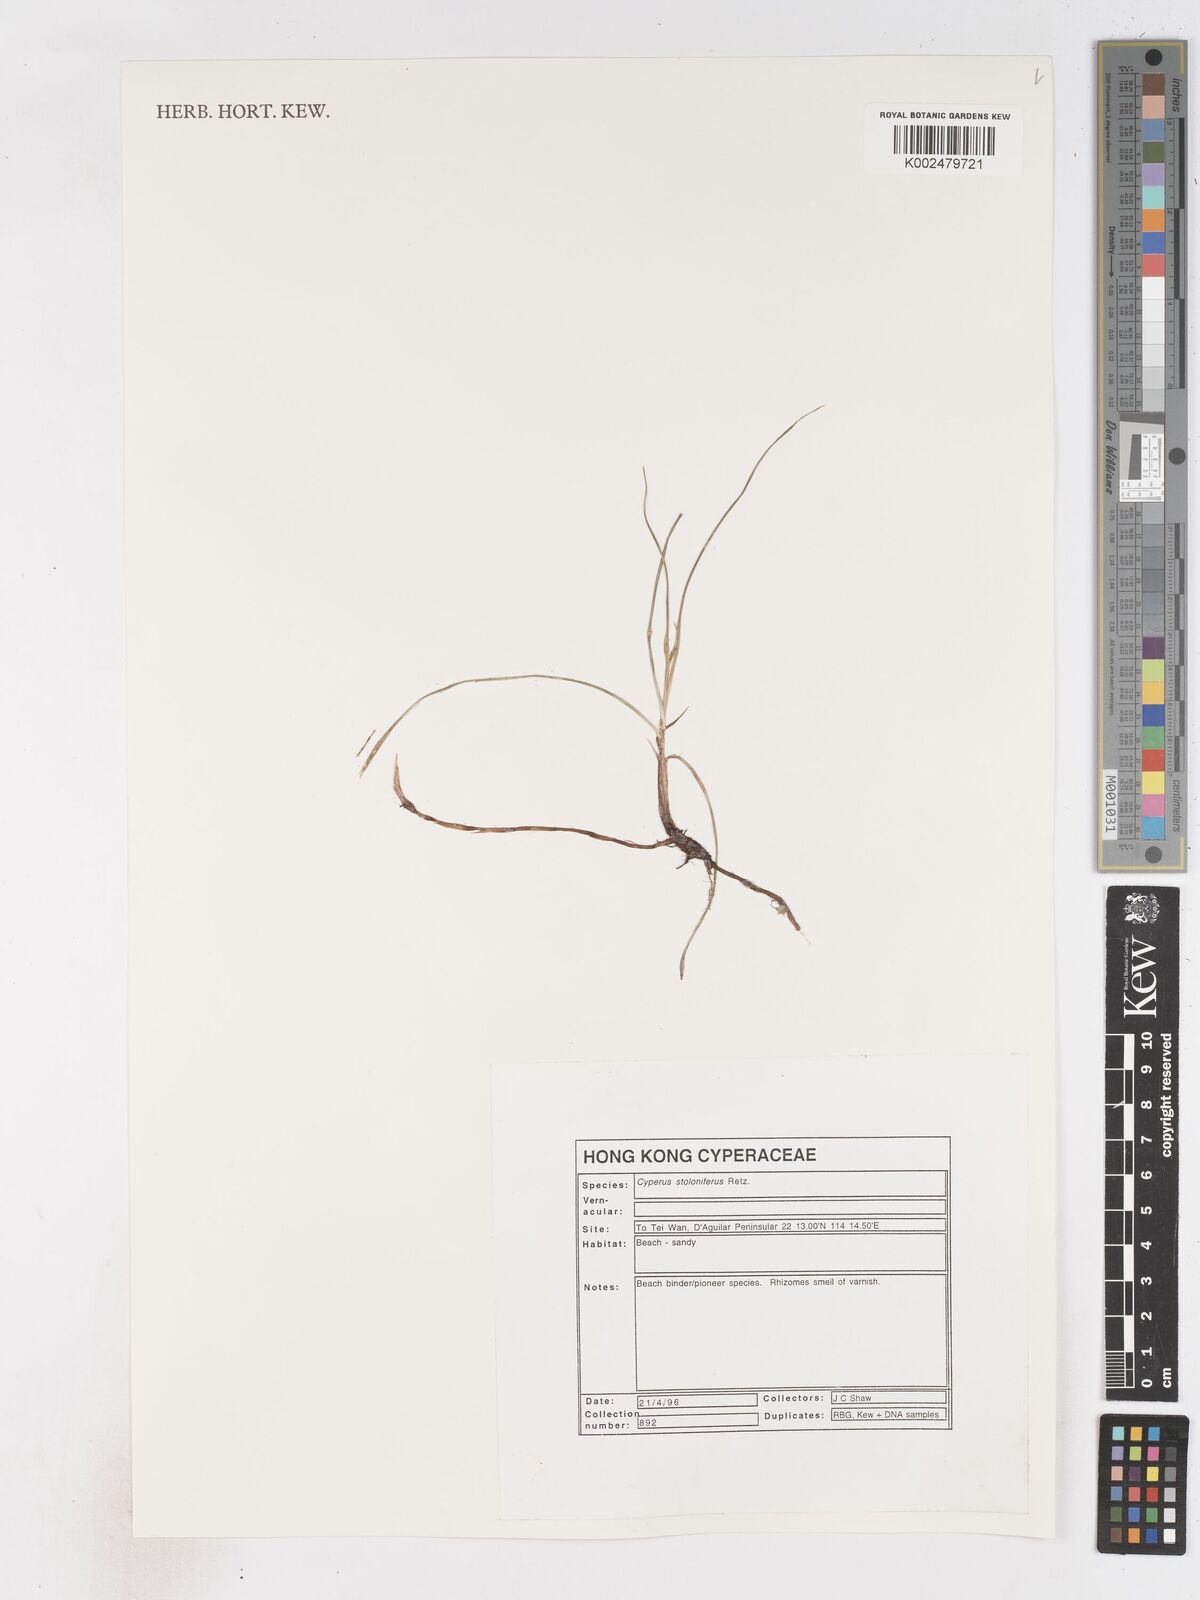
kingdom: Plantae
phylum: Tracheophyta
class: Liliopsida
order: Poales
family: Cyperaceae
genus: Cyperus
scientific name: Cyperus stolonifer
